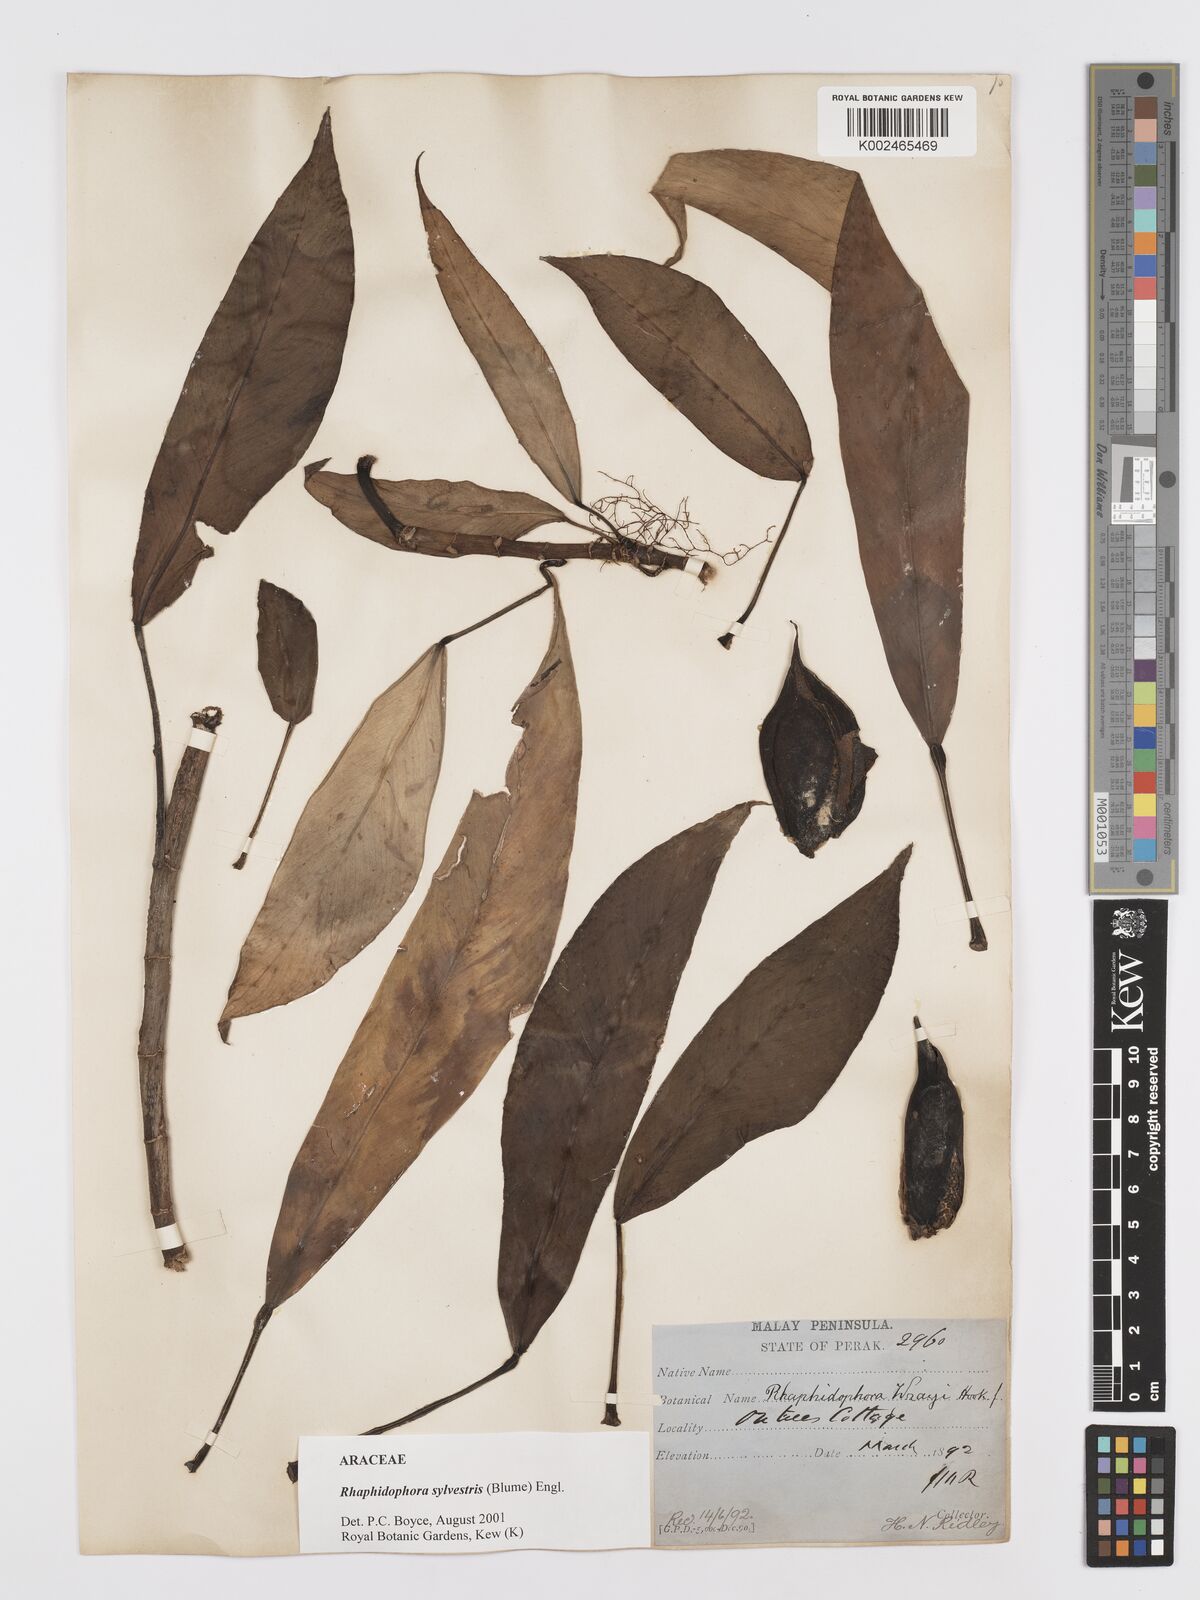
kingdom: Plantae
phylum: Tracheophyta
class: Liliopsida
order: Alismatales
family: Araceae
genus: Rhaphidophora
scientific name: Rhaphidophora sylvestris
